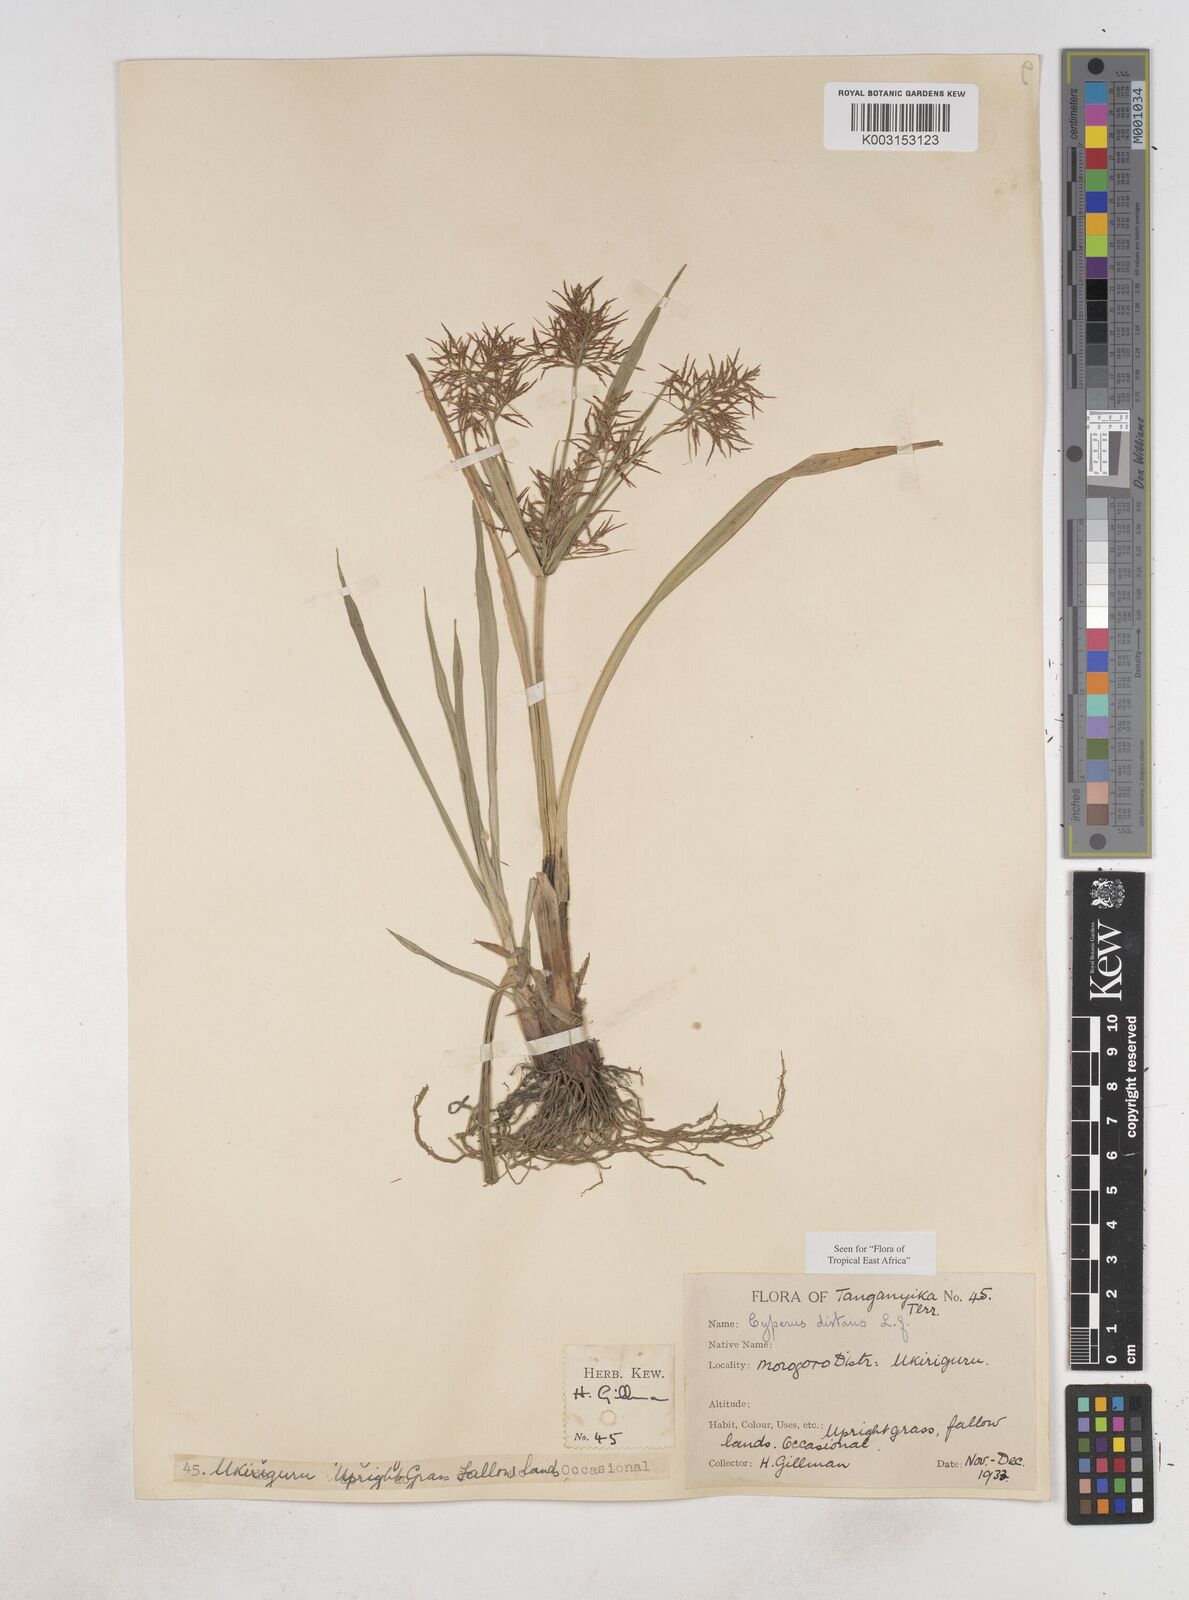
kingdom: Plantae
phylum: Tracheophyta
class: Liliopsida
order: Poales
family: Cyperaceae
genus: Cyperus
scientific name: Cyperus distans
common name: Slender cyperus
